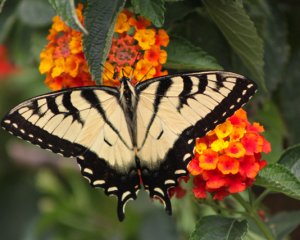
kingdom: Animalia
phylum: Arthropoda
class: Insecta
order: Lepidoptera
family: Papilionidae
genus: Pterourus
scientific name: Pterourus glaucus
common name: Eastern Tiger Swallowtail
